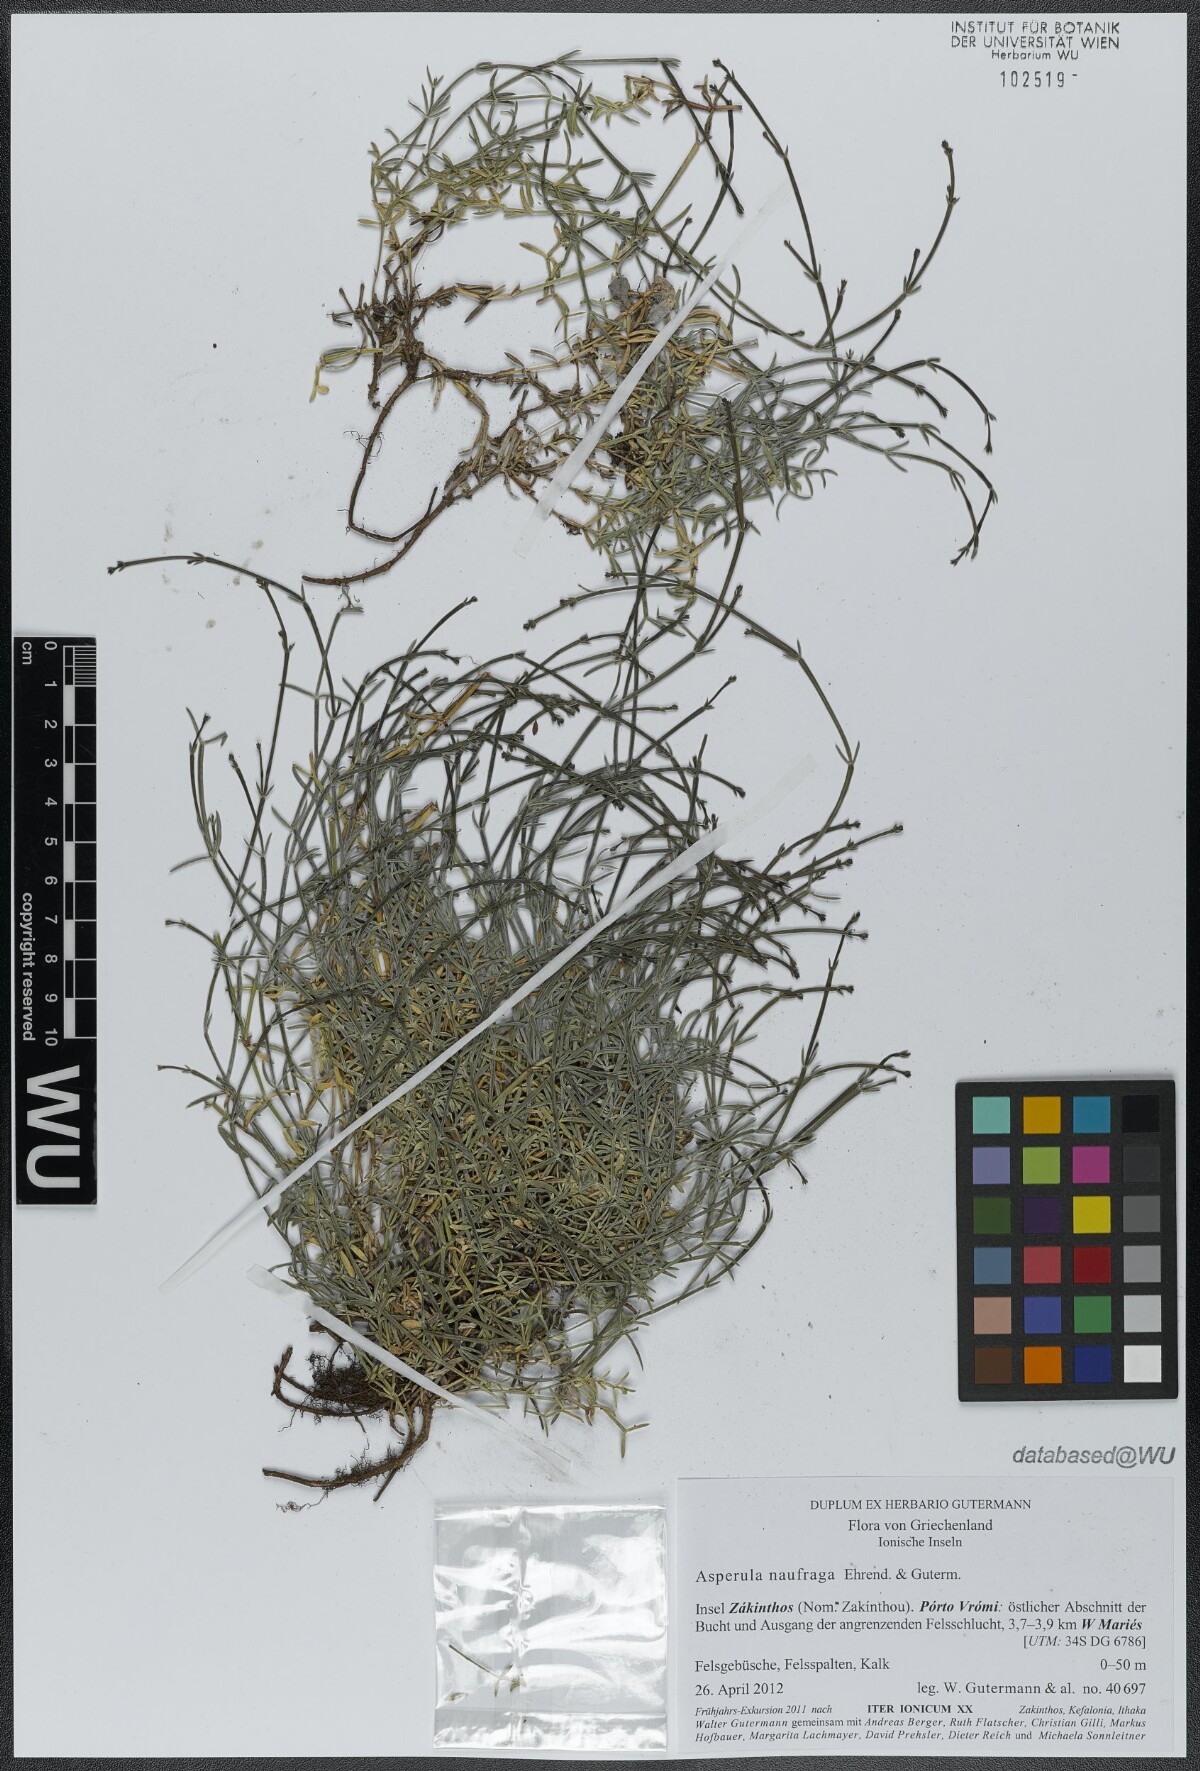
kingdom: Plantae
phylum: Tracheophyta
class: Magnoliopsida
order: Gentianales
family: Rubiaceae
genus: Cynanchica
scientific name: Cynanchica naufraga
